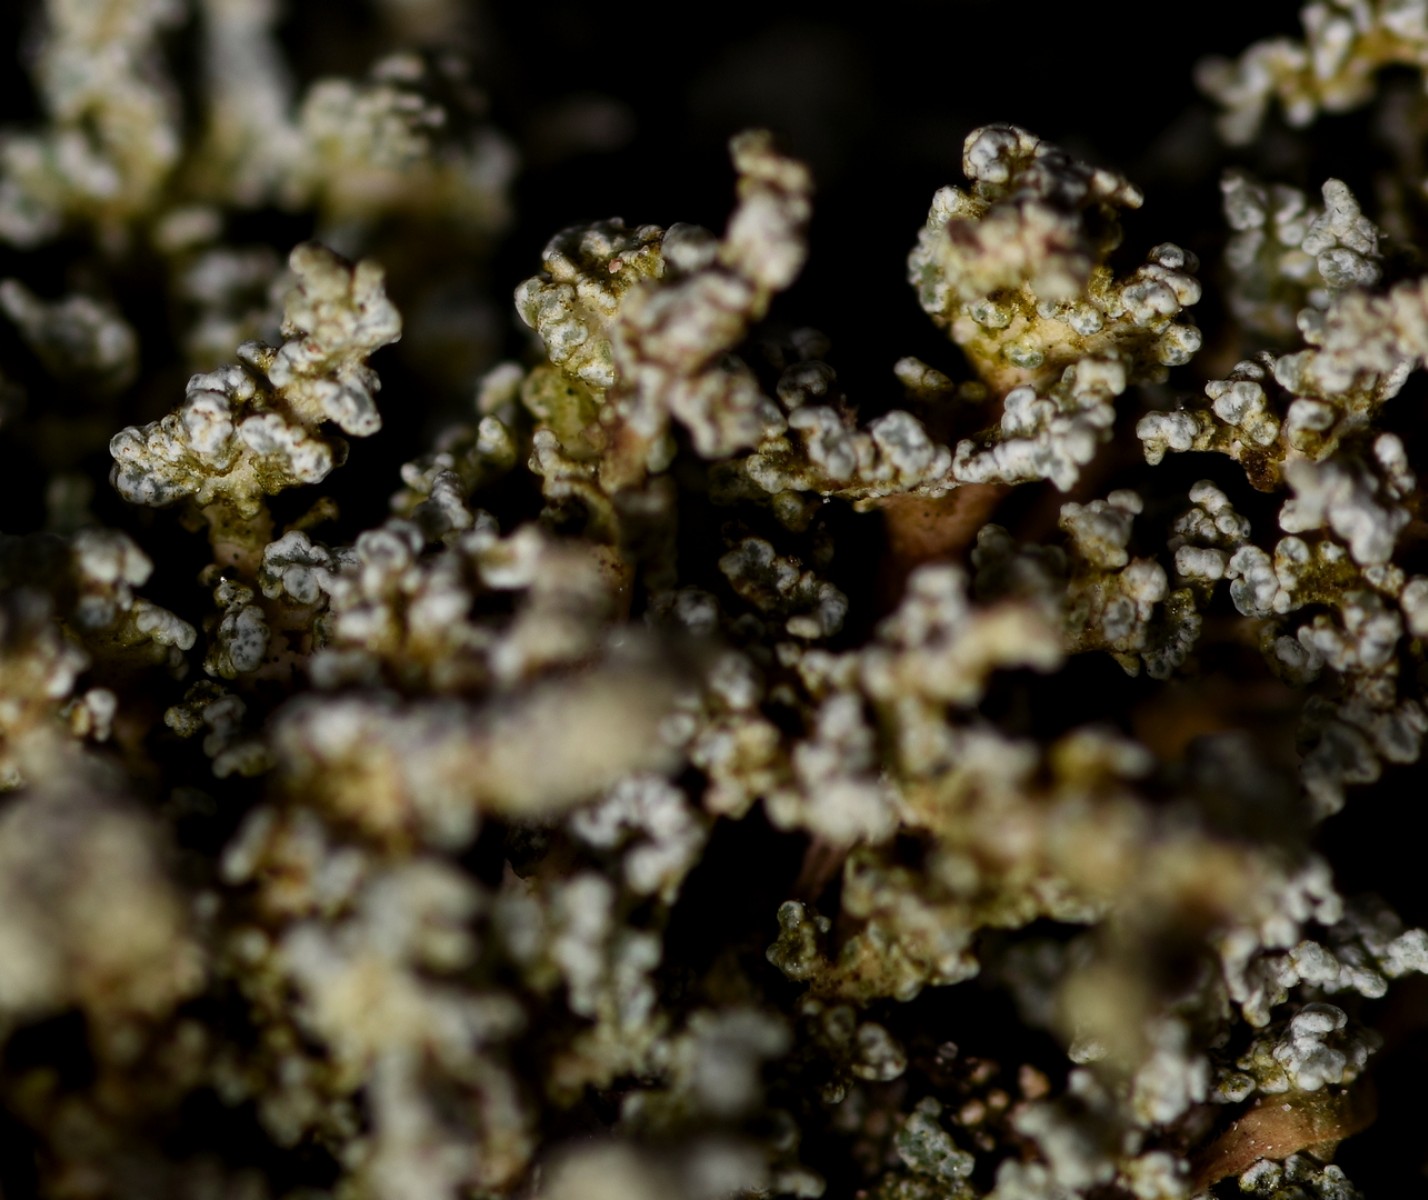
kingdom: Fungi
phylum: Ascomycota
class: Lecanoromycetes
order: Lecanorales
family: Stereocaulaceae
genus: Stereocaulon
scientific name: Stereocaulon vesuvianum
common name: skjold-korallav
